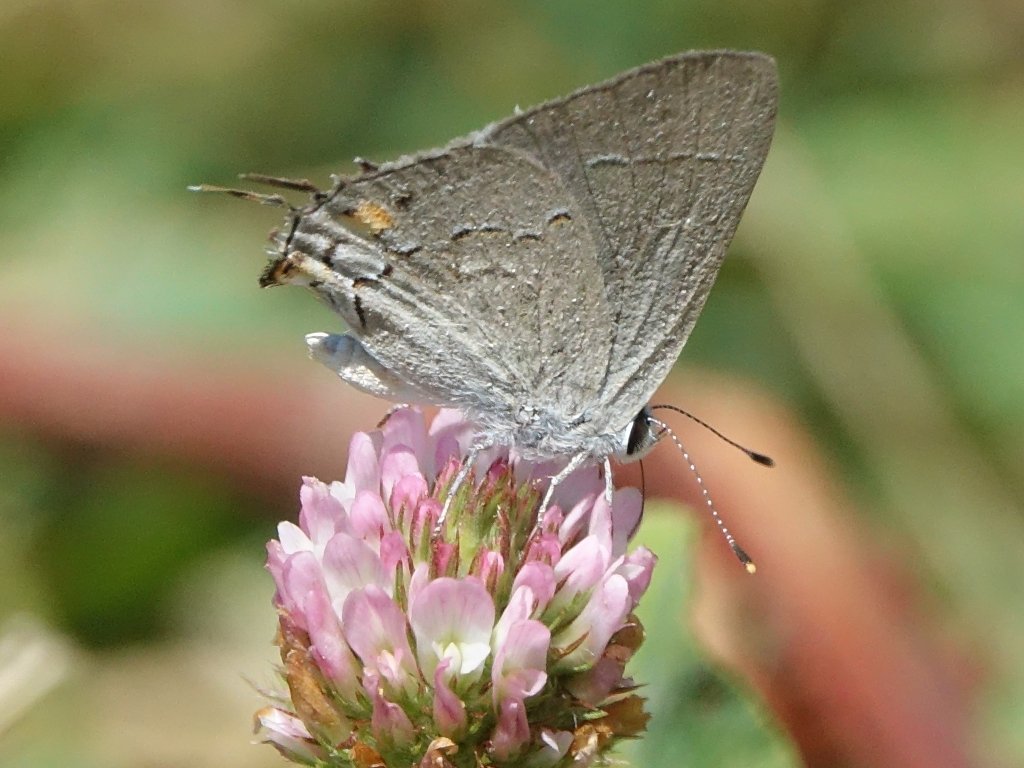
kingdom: Animalia
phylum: Arthropoda
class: Insecta
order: Lepidoptera
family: Lycaenidae
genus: Strymon
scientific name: Strymon melinus
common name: Gray Hairstreak
